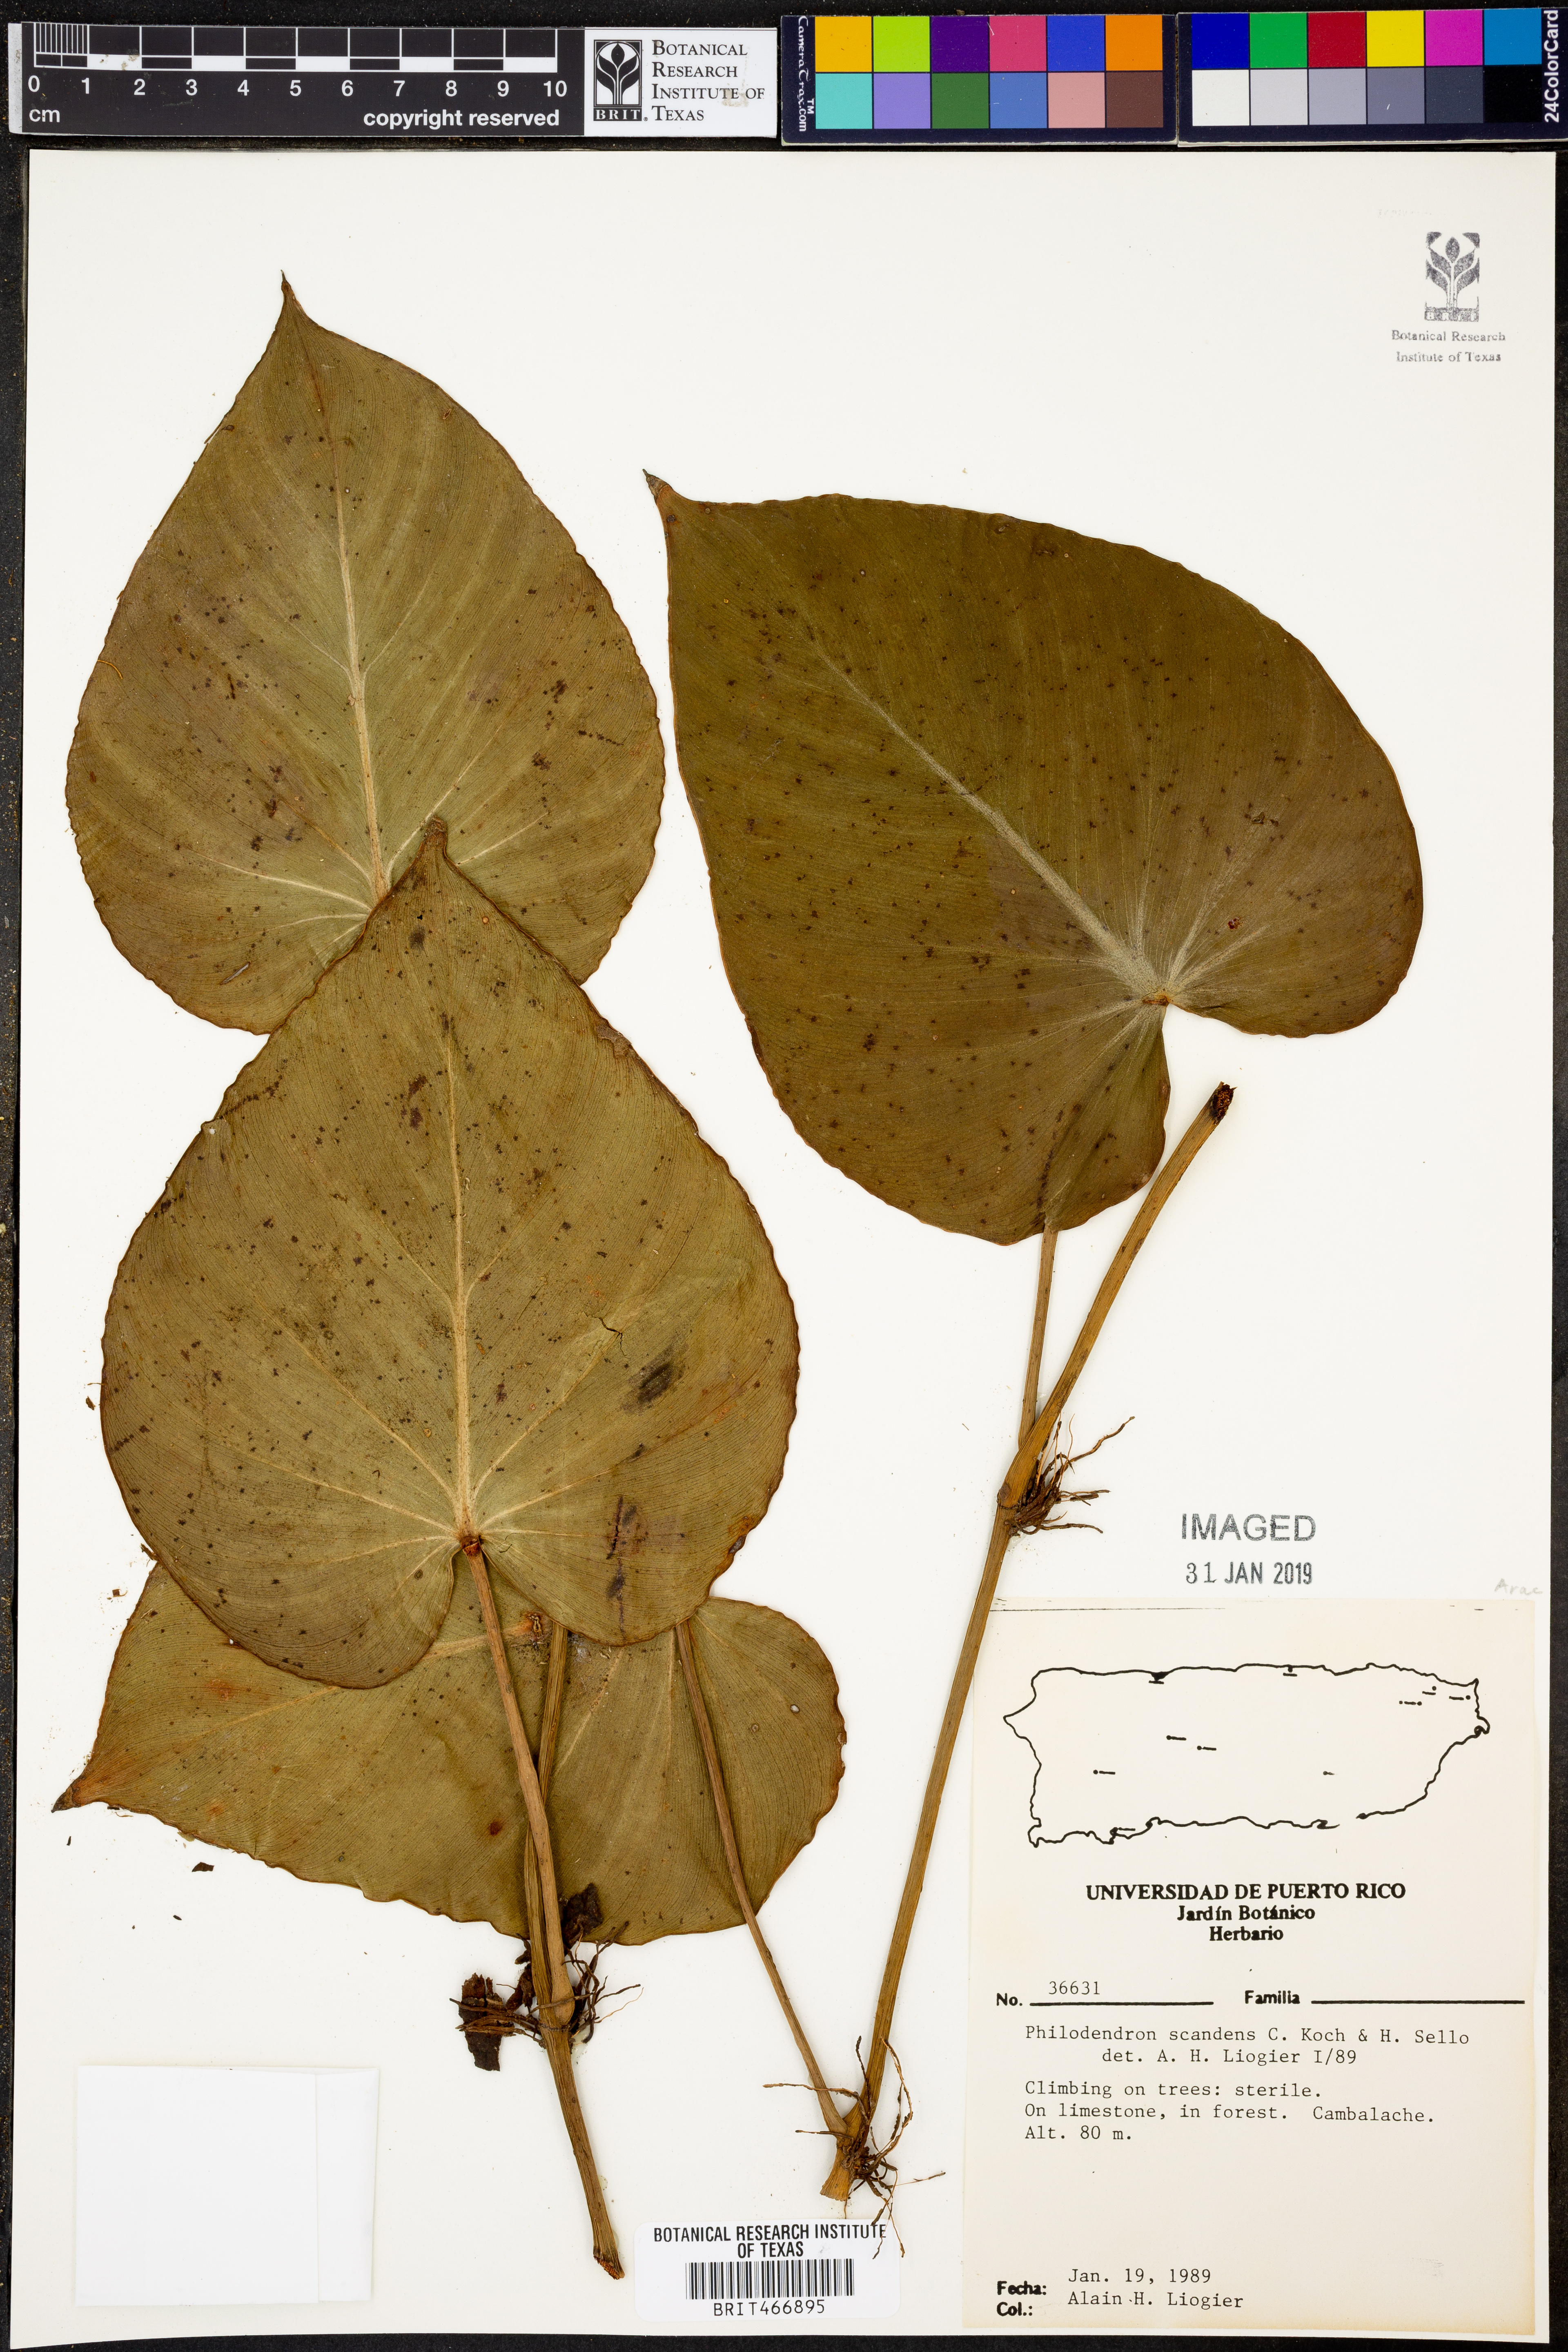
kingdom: Plantae
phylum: Tracheophyta
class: Liliopsida
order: Alismatales
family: Araceae
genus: Philodendron
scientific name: Philodendron hederaceum
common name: Vilevine
